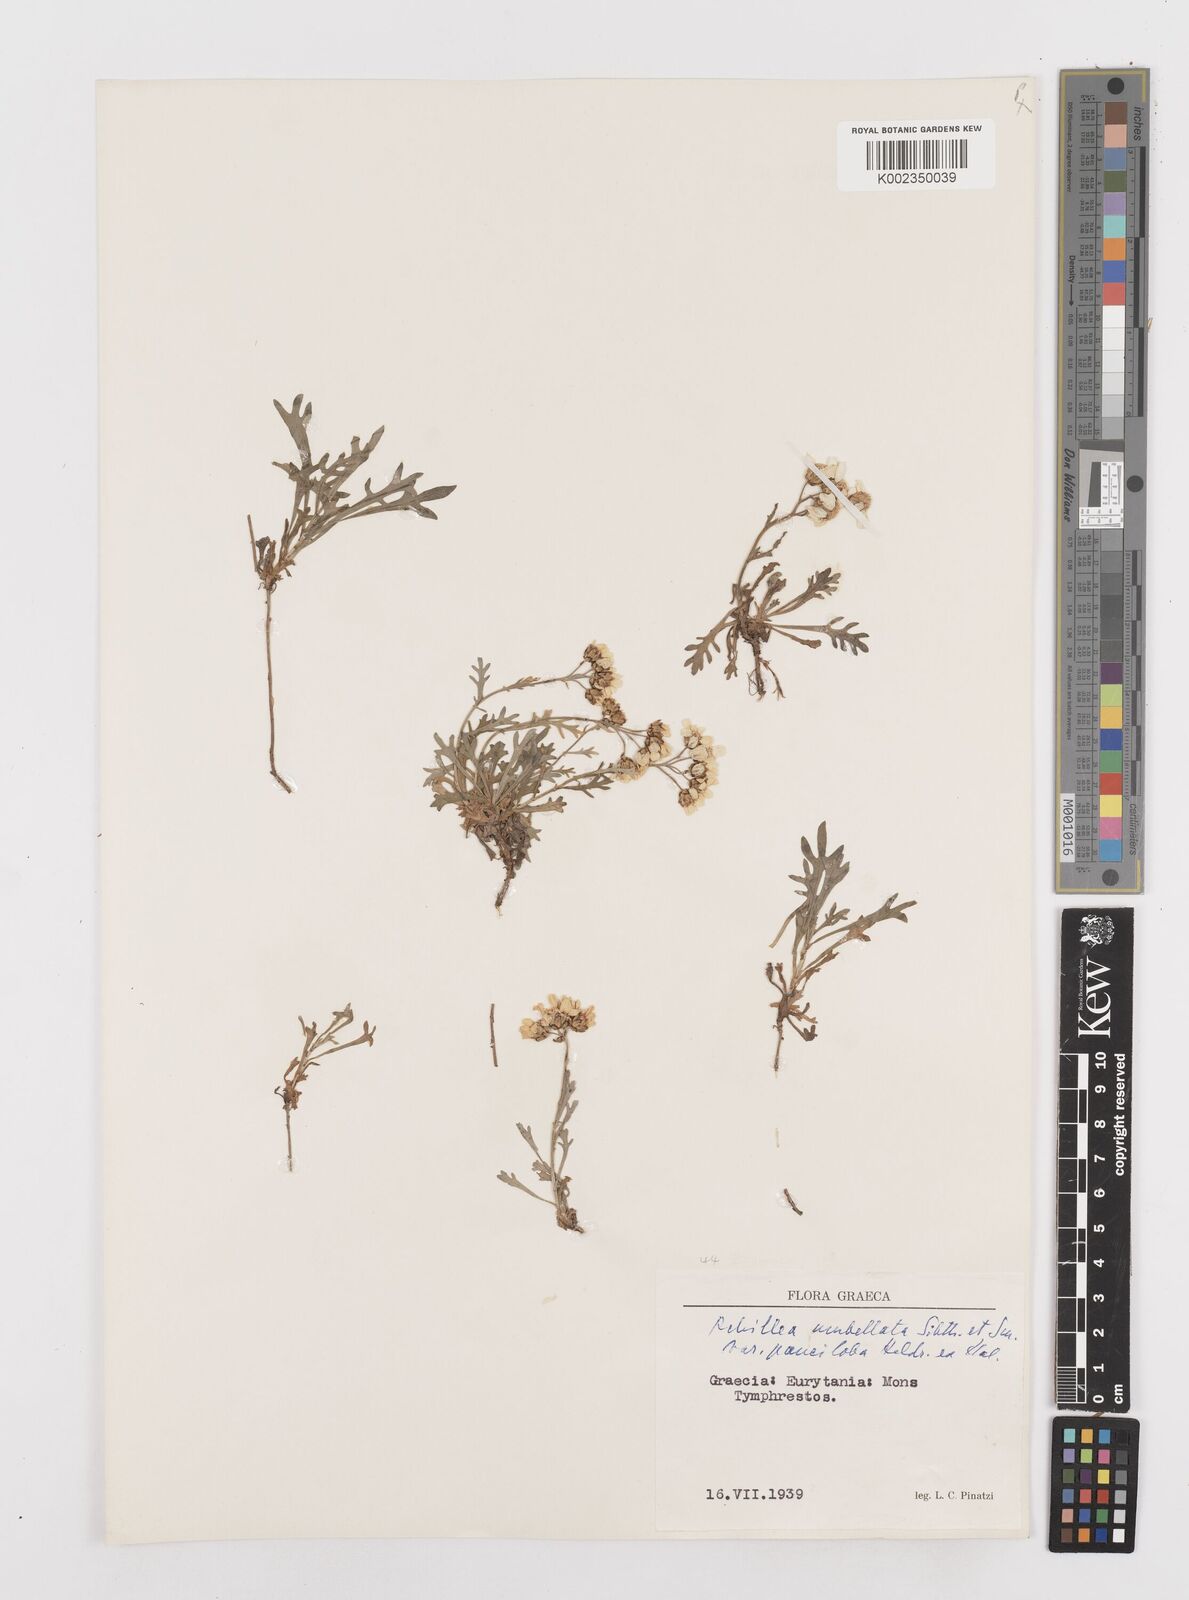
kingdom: Plantae
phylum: Tracheophyta
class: Magnoliopsida
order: Asterales
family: Asteraceae
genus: Achillea
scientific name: Achillea umbellata
